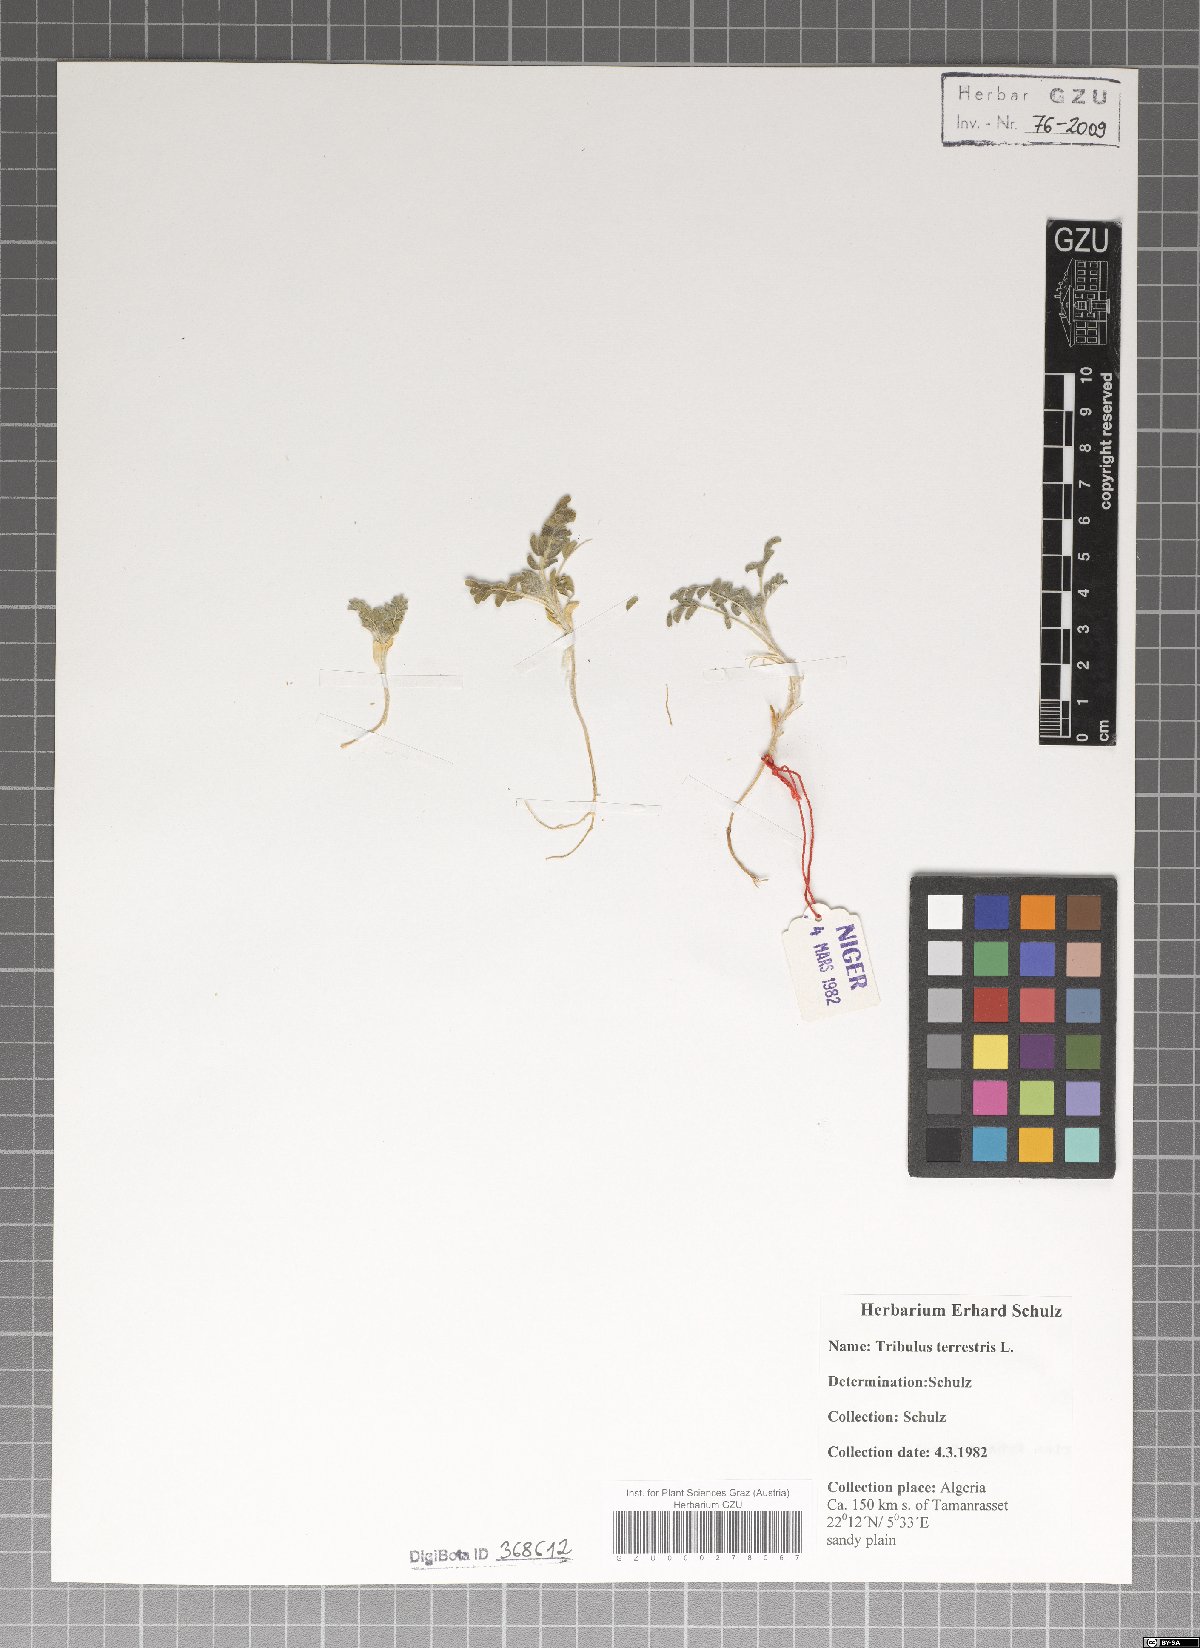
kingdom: Plantae
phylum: Tracheophyta
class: Magnoliopsida
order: Zygophyllales
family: Zygophyllaceae
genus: Tribulus
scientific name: Tribulus terrestris
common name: Puncturevine
